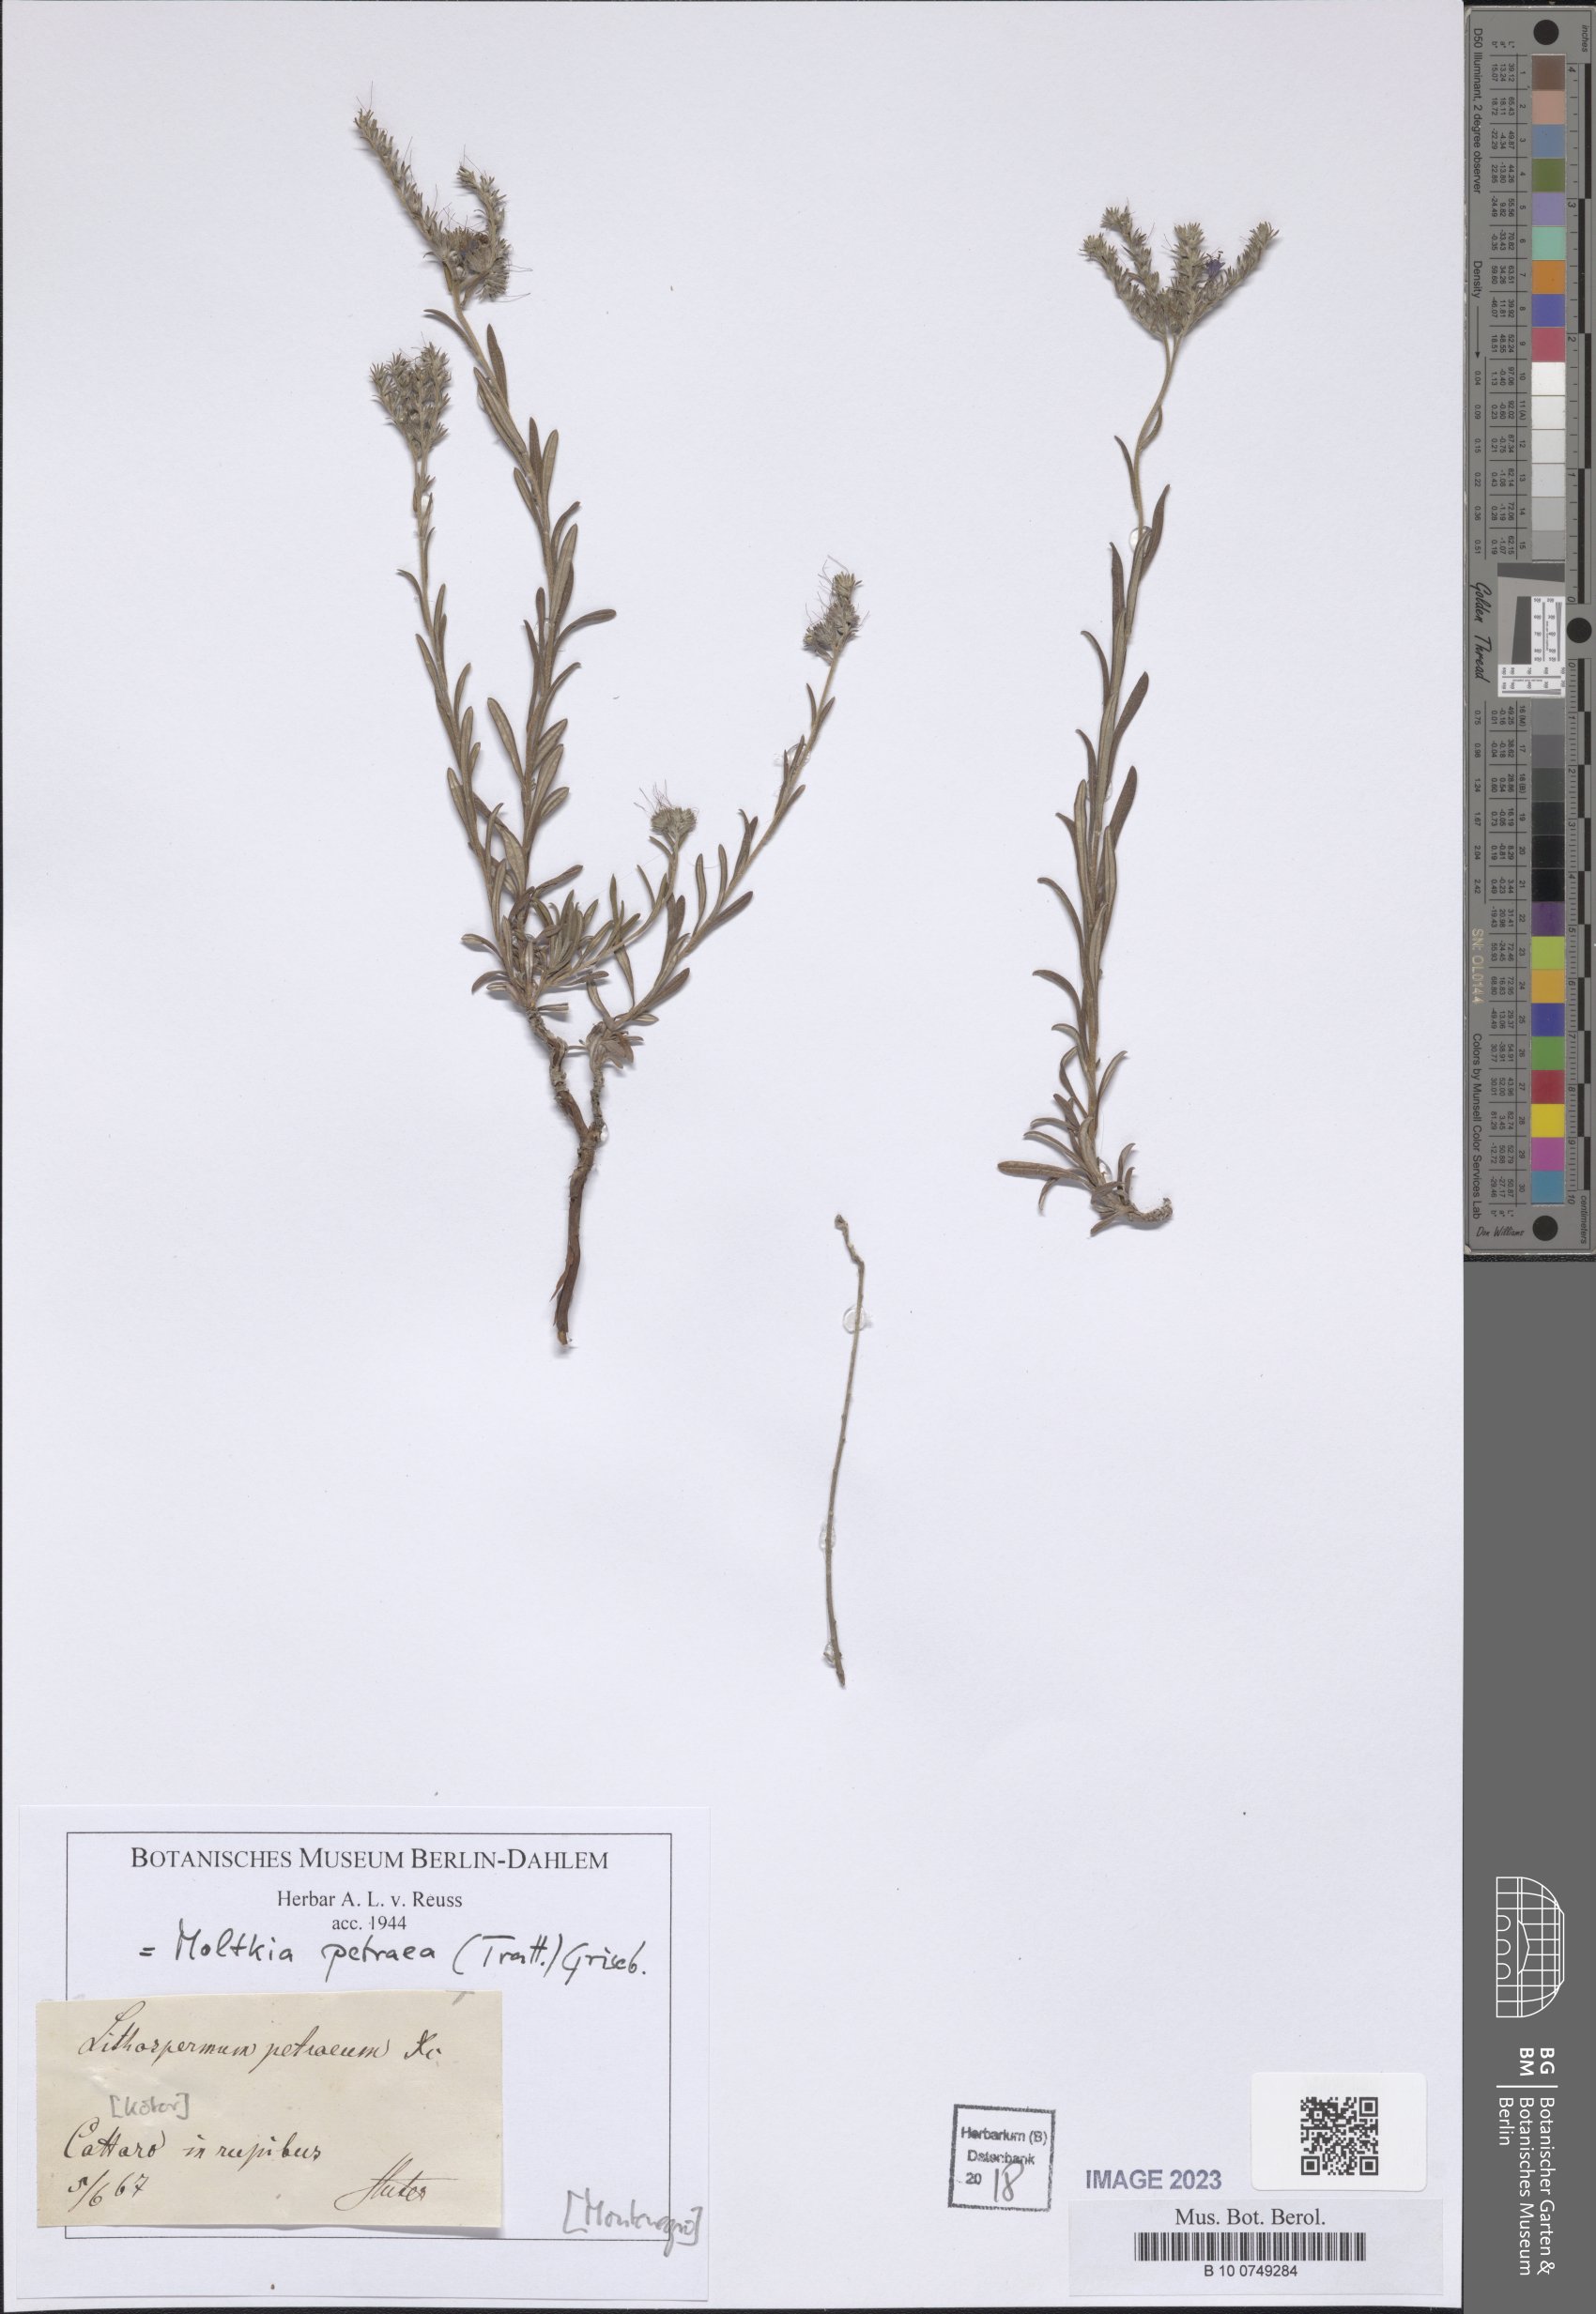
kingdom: Plantae
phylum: Tracheophyta
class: Magnoliopsida
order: Boraginales
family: Boraginaceae
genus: Moltkia
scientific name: Moltkia petraea
